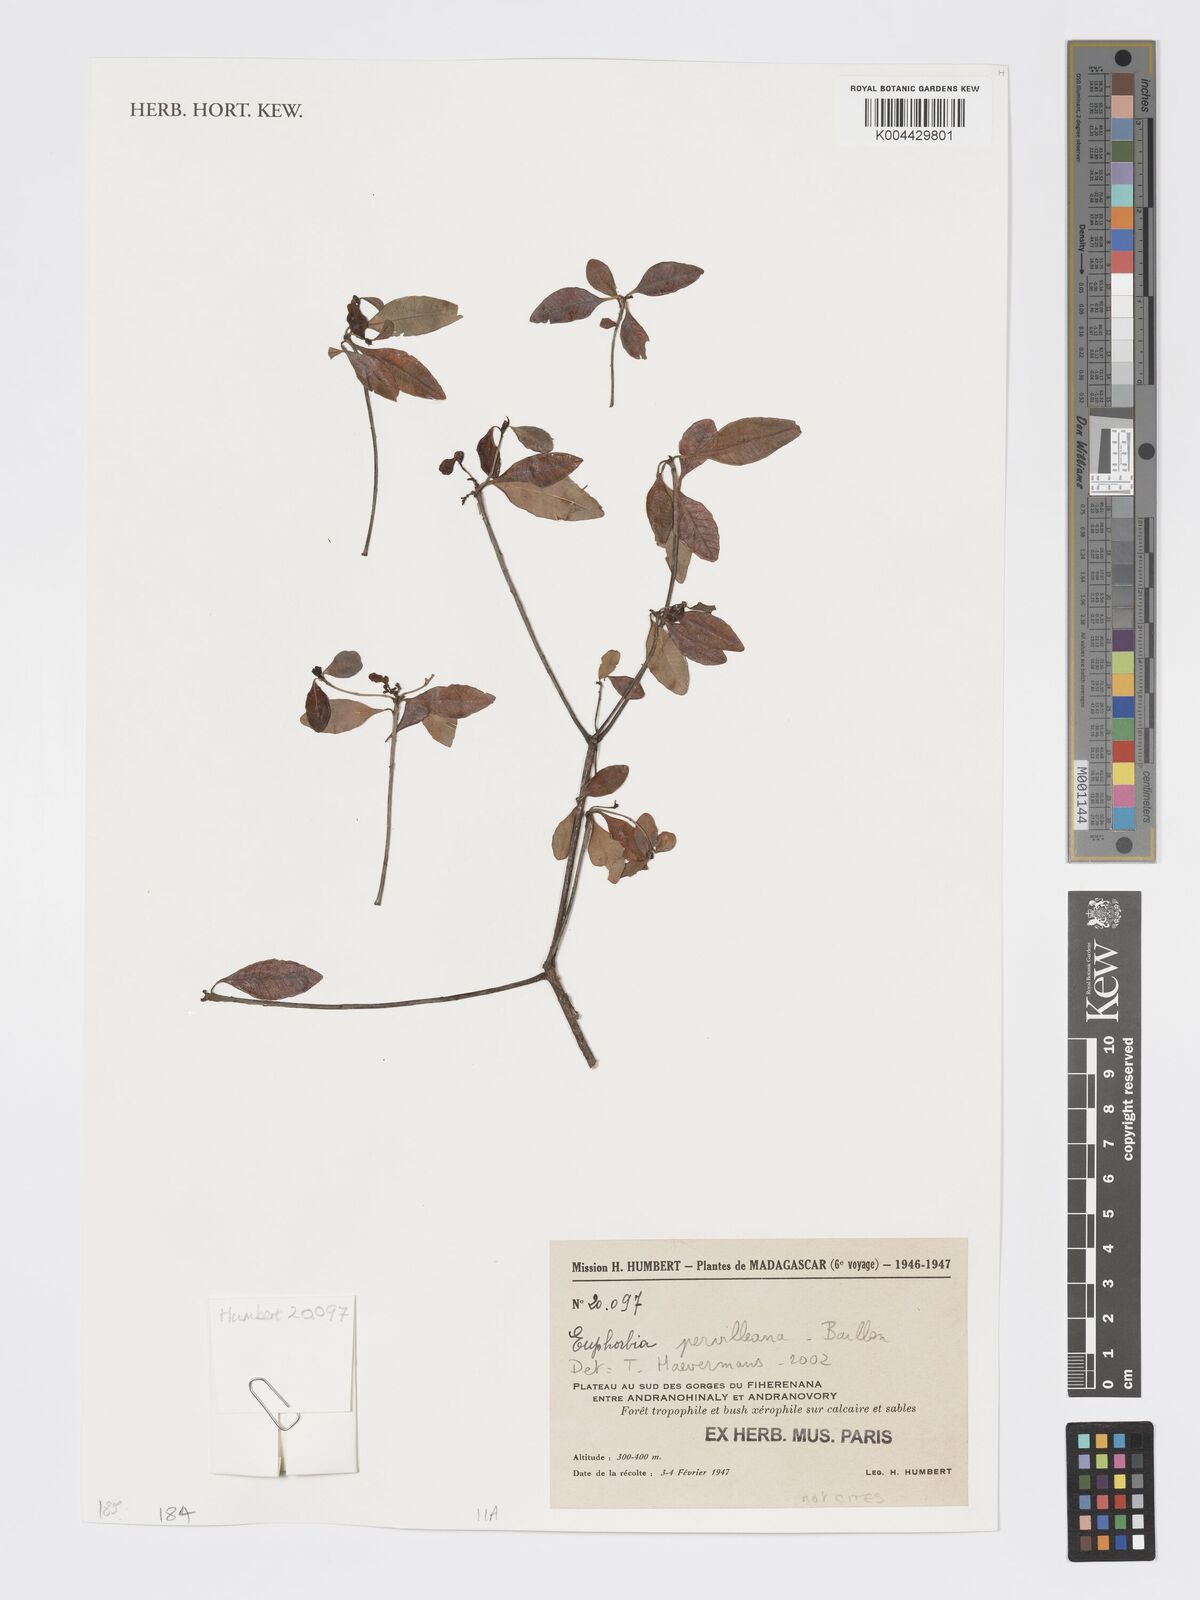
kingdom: Plantae
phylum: Tracheophyta
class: Magnoliopsida
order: Malpighiales
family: Euphorbiaceae
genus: Euphorbia
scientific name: Euphorbia pervilleana
